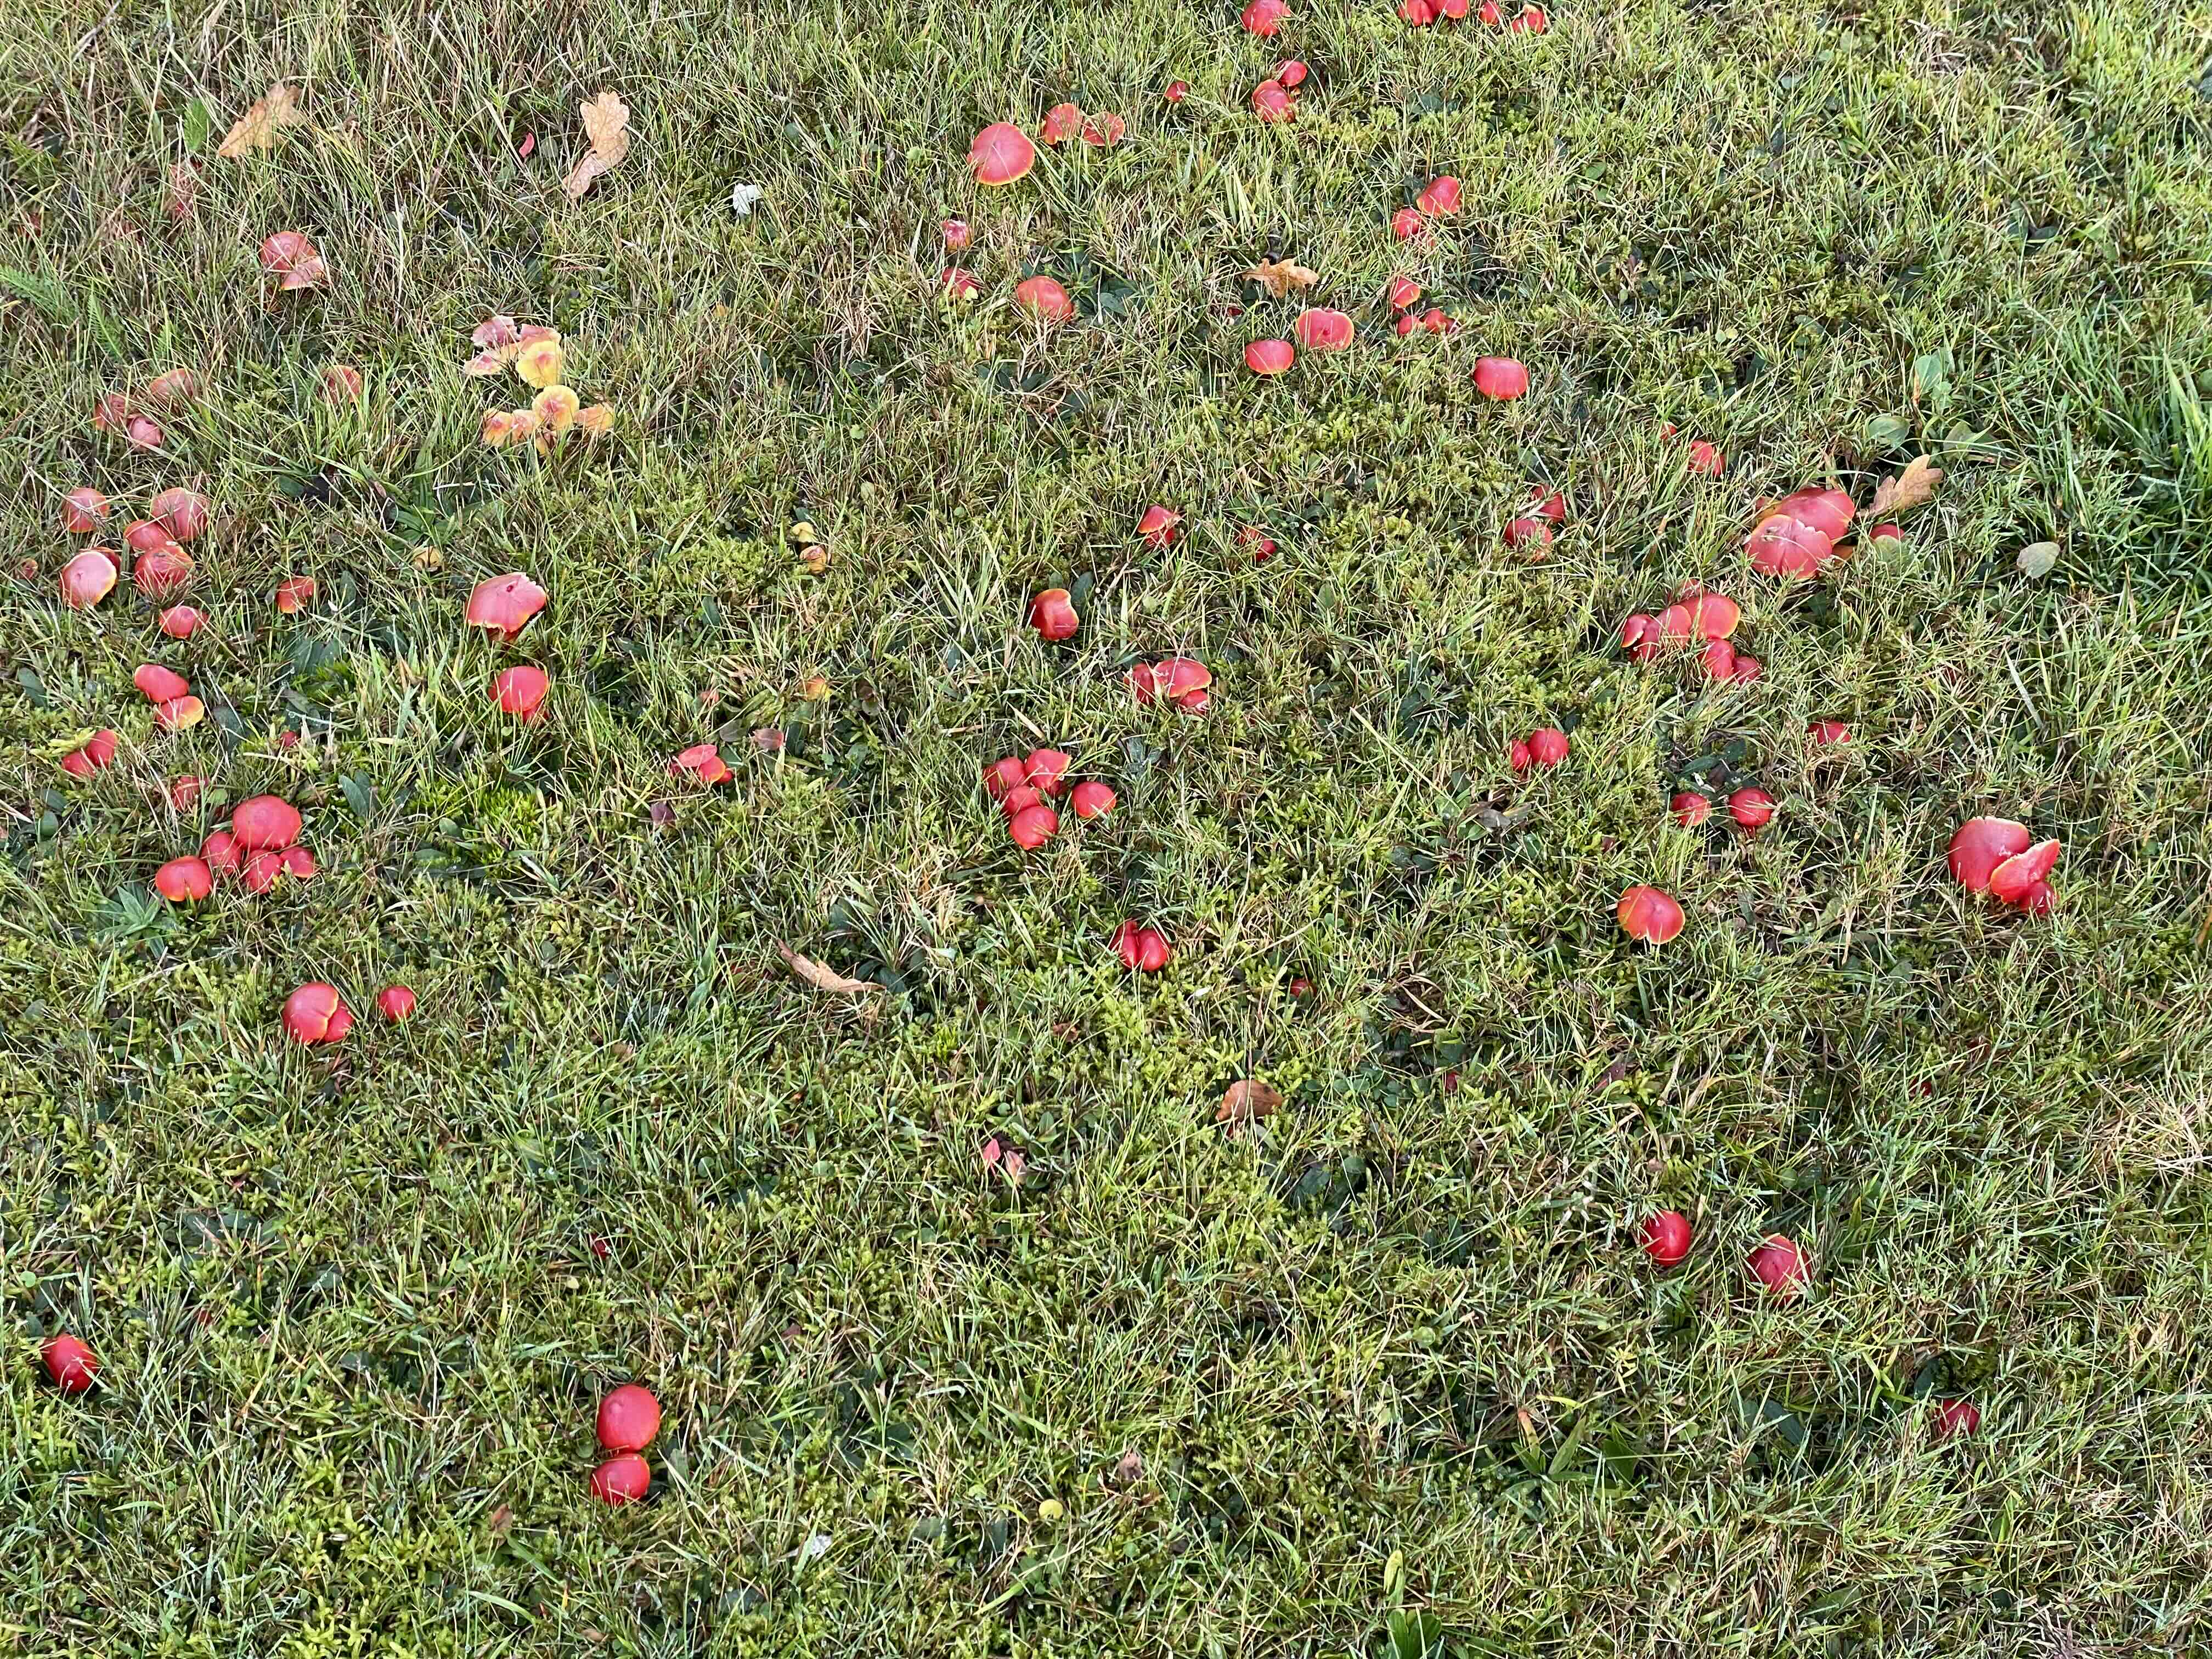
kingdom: Fungi
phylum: Basidiomycota
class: Agaricomycetes
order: Agaricales
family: Hygrophoraceae
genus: Hygrocybe
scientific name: Hygrocybe coccinea
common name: cinnober-vokshat
